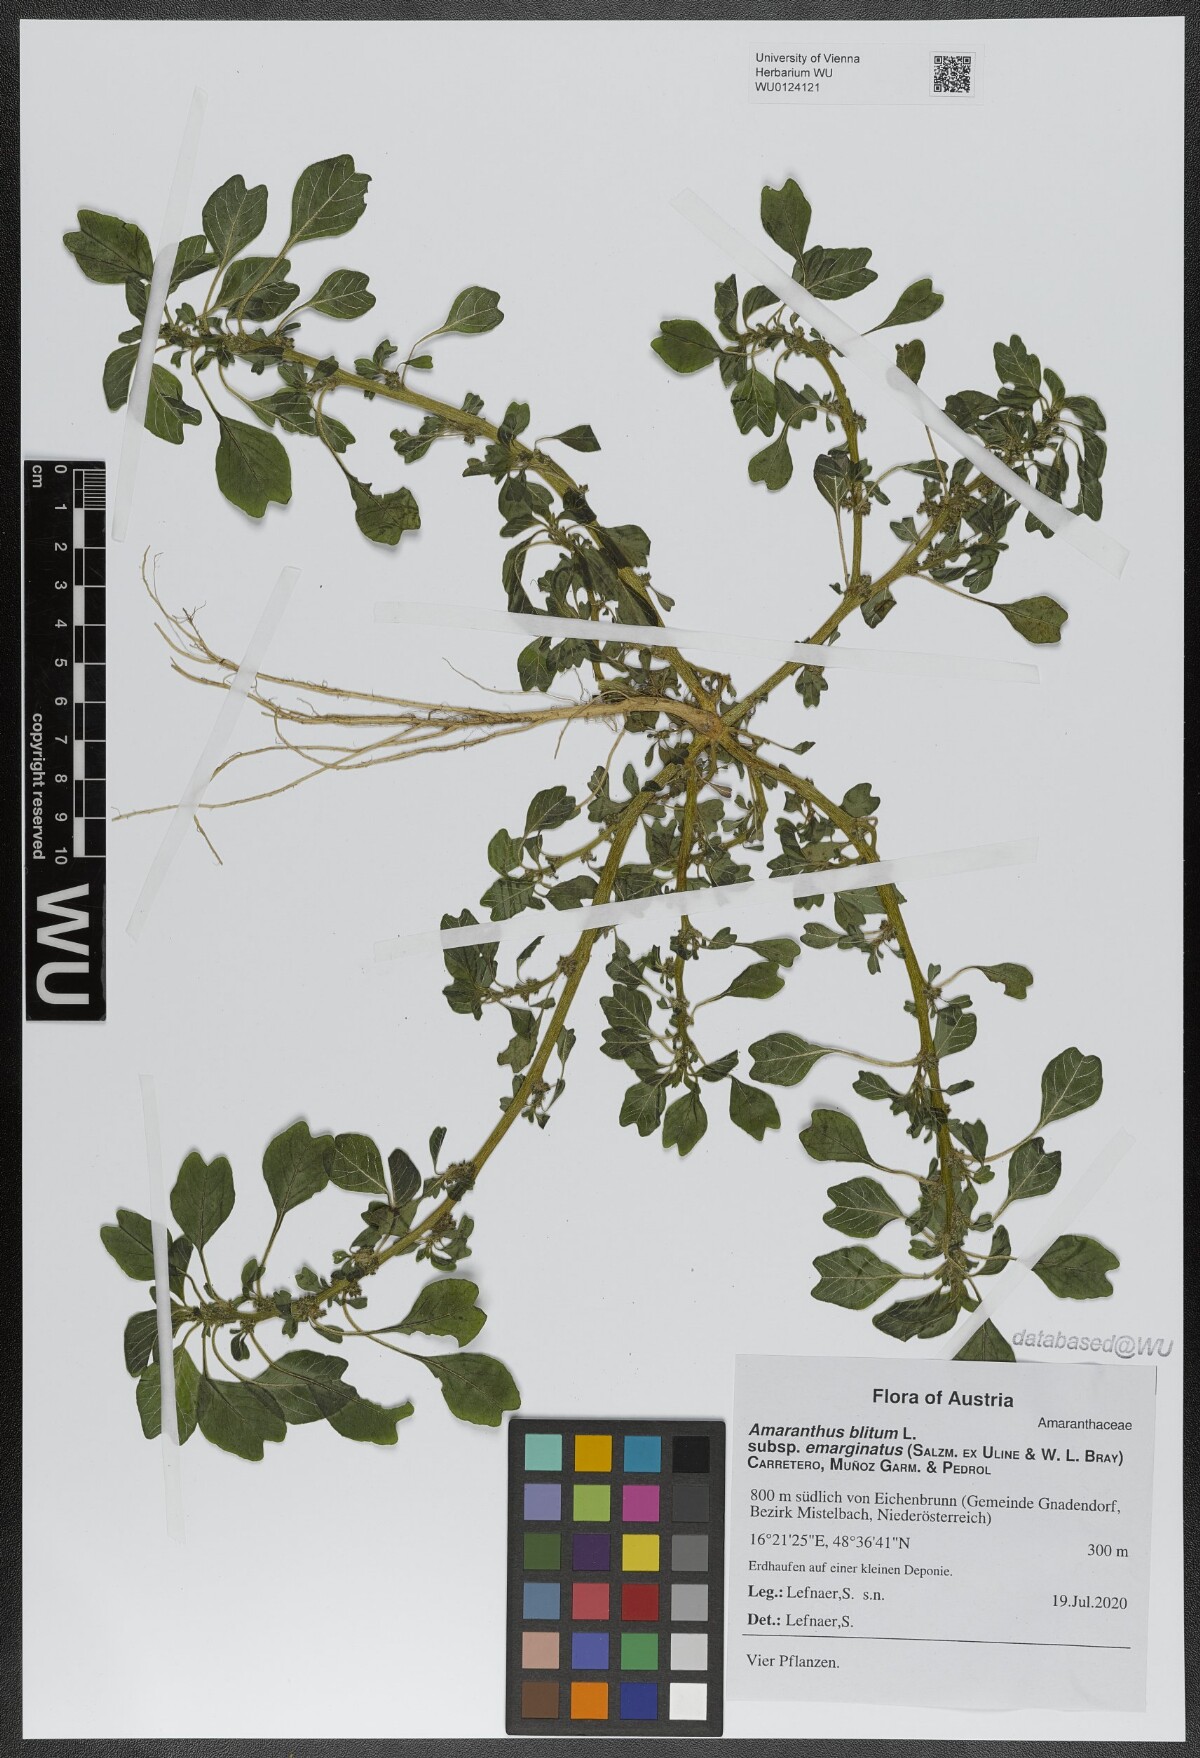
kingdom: Plantae
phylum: Tracheophyta
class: Magnoliopsida
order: Caryophyllales
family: Amaranthaceae
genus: Amaranthus
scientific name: Amaranthus emarginatus
